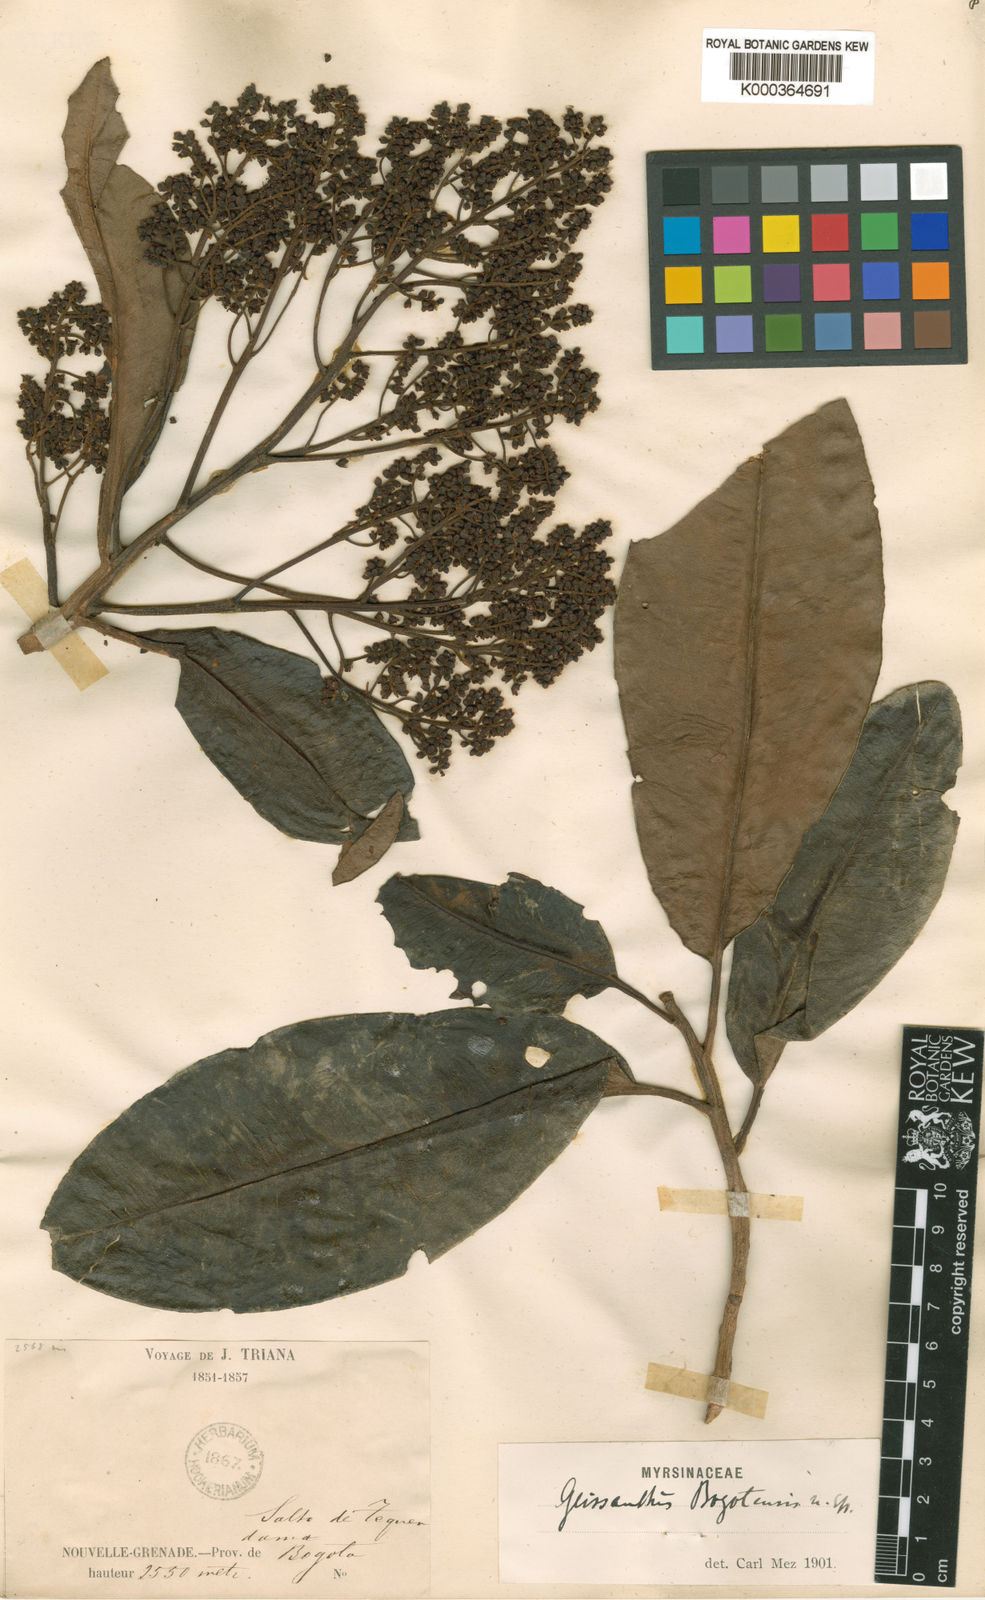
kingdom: Plantae
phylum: Tracheophyta
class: Magnoliopsida
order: Ericales
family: Primulaceae
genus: Geissanthus
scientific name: Geissanthus bogotensis
